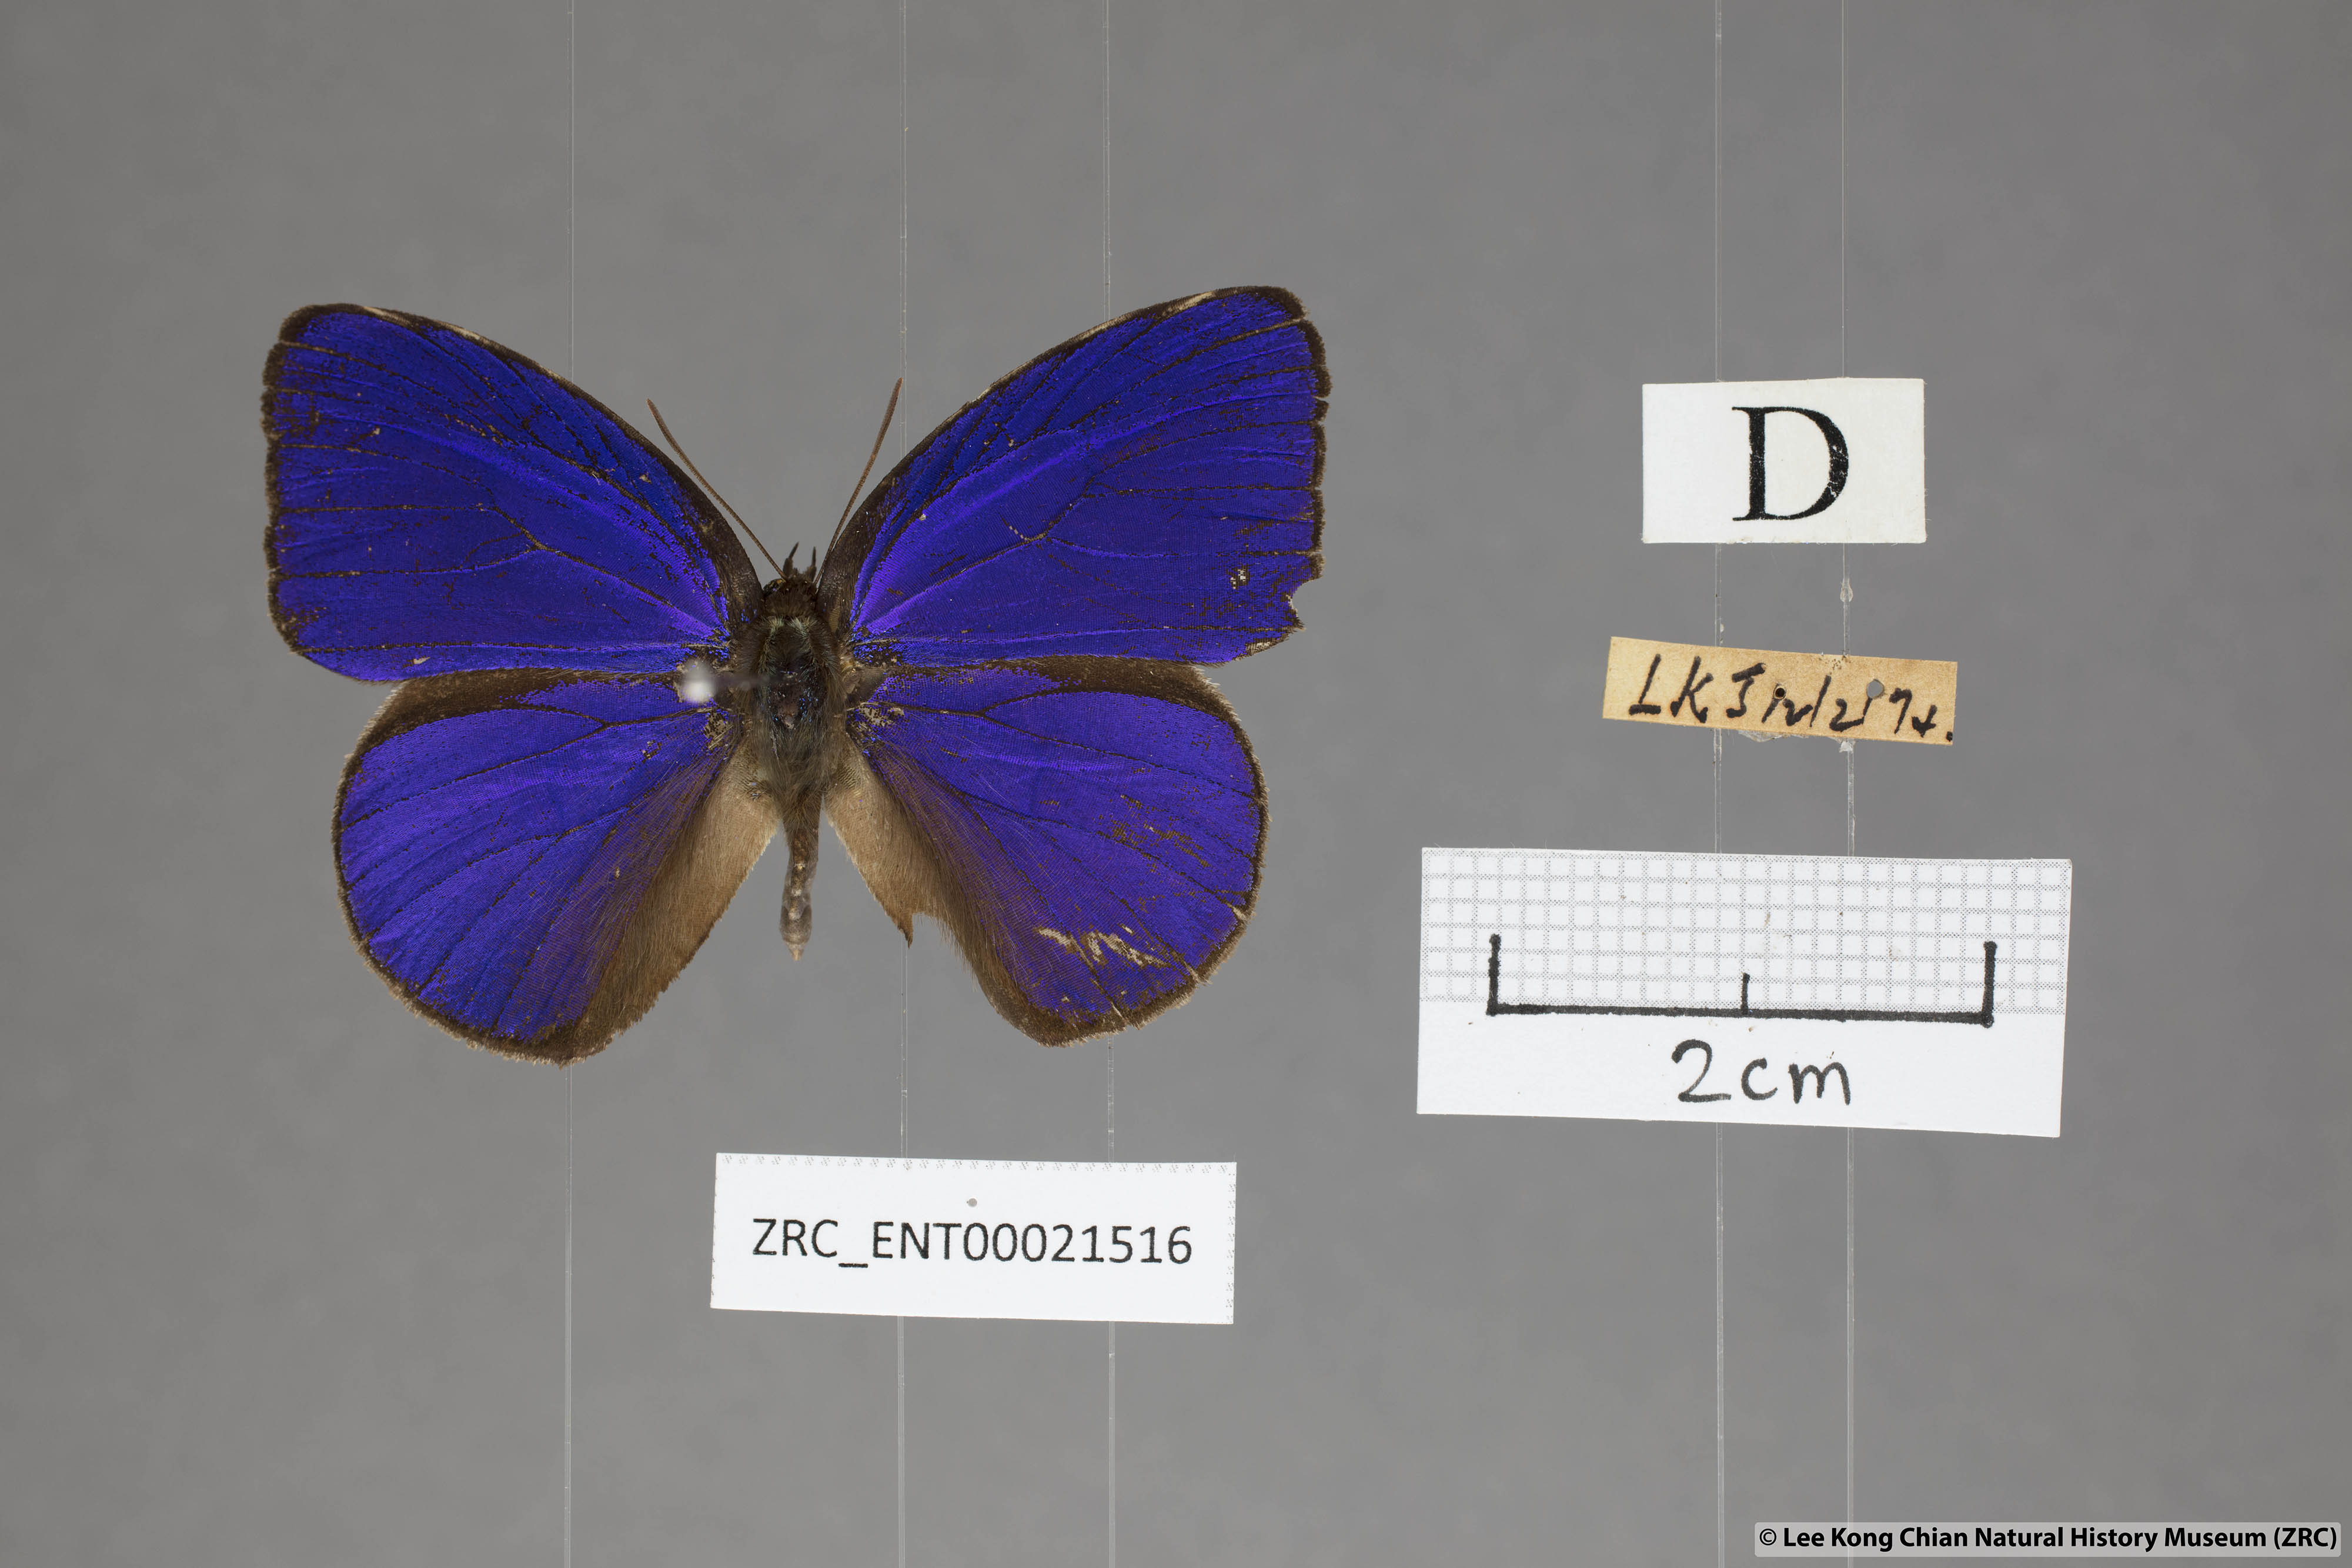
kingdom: Animalia
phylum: Arthropoda
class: Insecta
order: Lepidoptera
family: Lycaenidae
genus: Flos
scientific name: Flos
